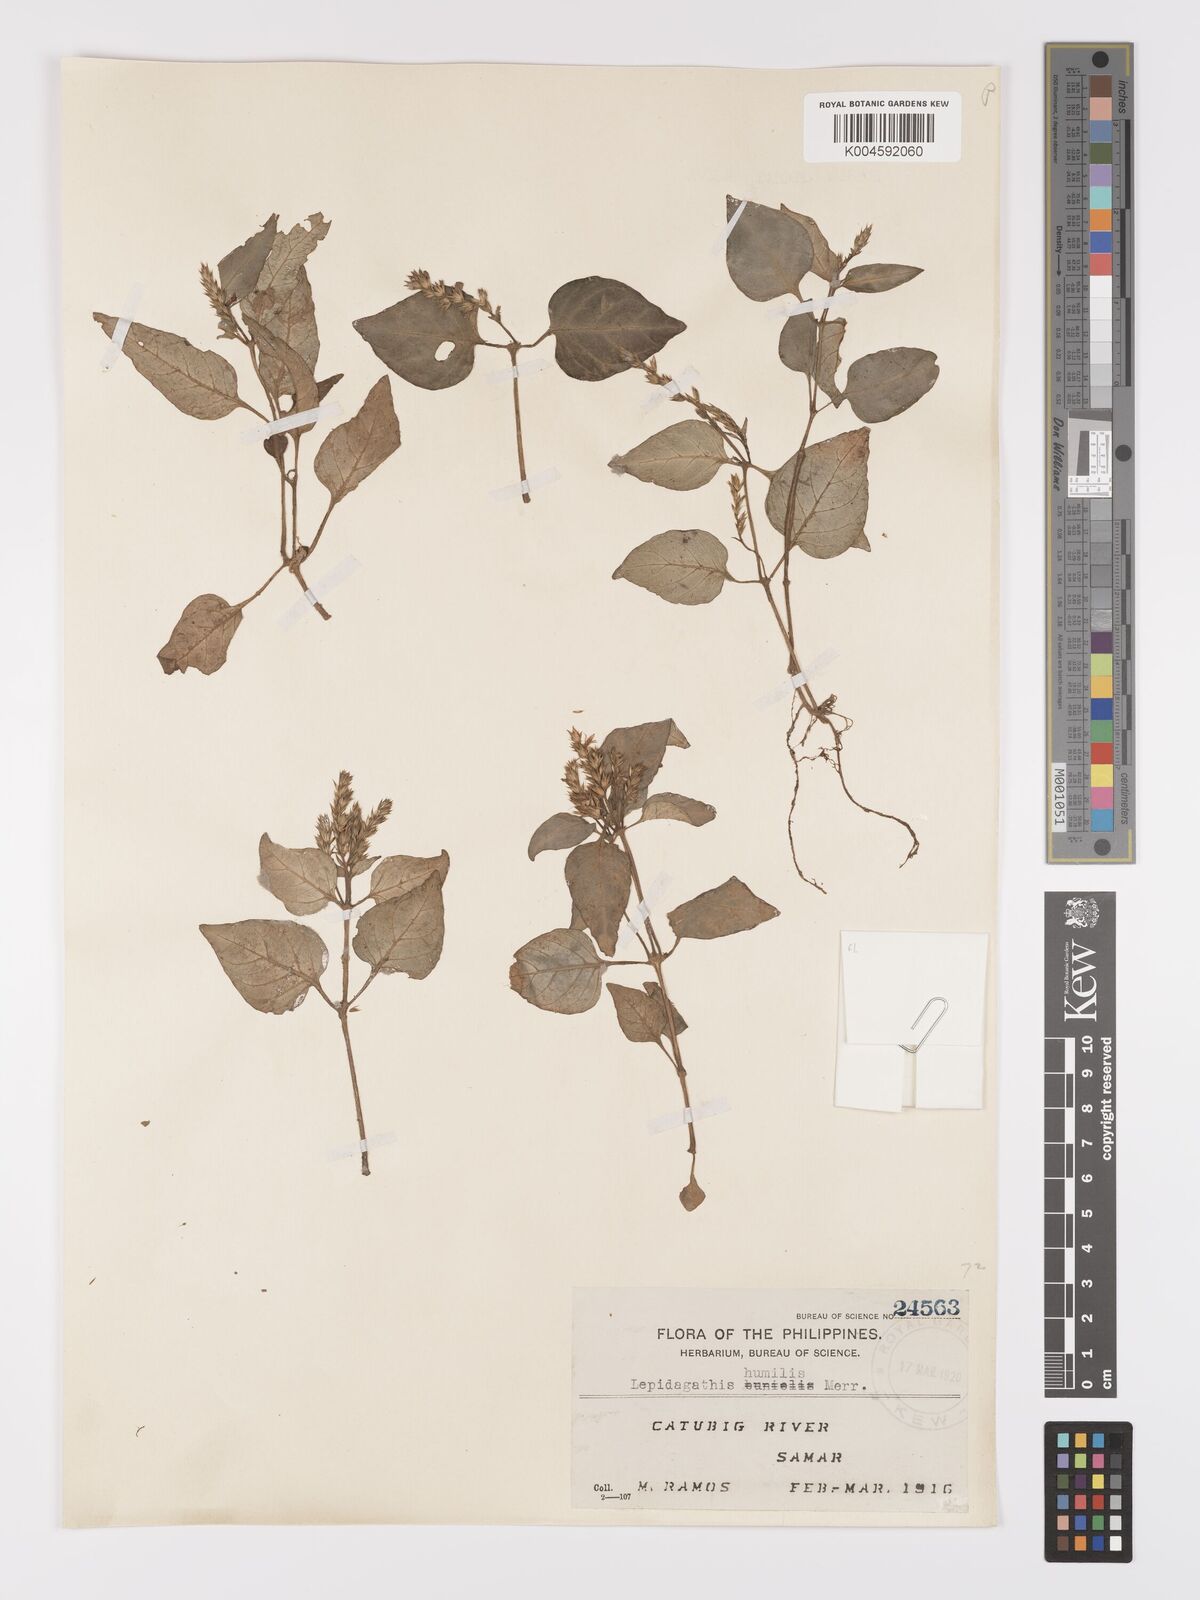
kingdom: Plantae
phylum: Tracheophyta
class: Magnoliopsida
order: Lamiales
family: Acanthaceae
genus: Lepidagathis
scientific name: Lepidagathis humilis
